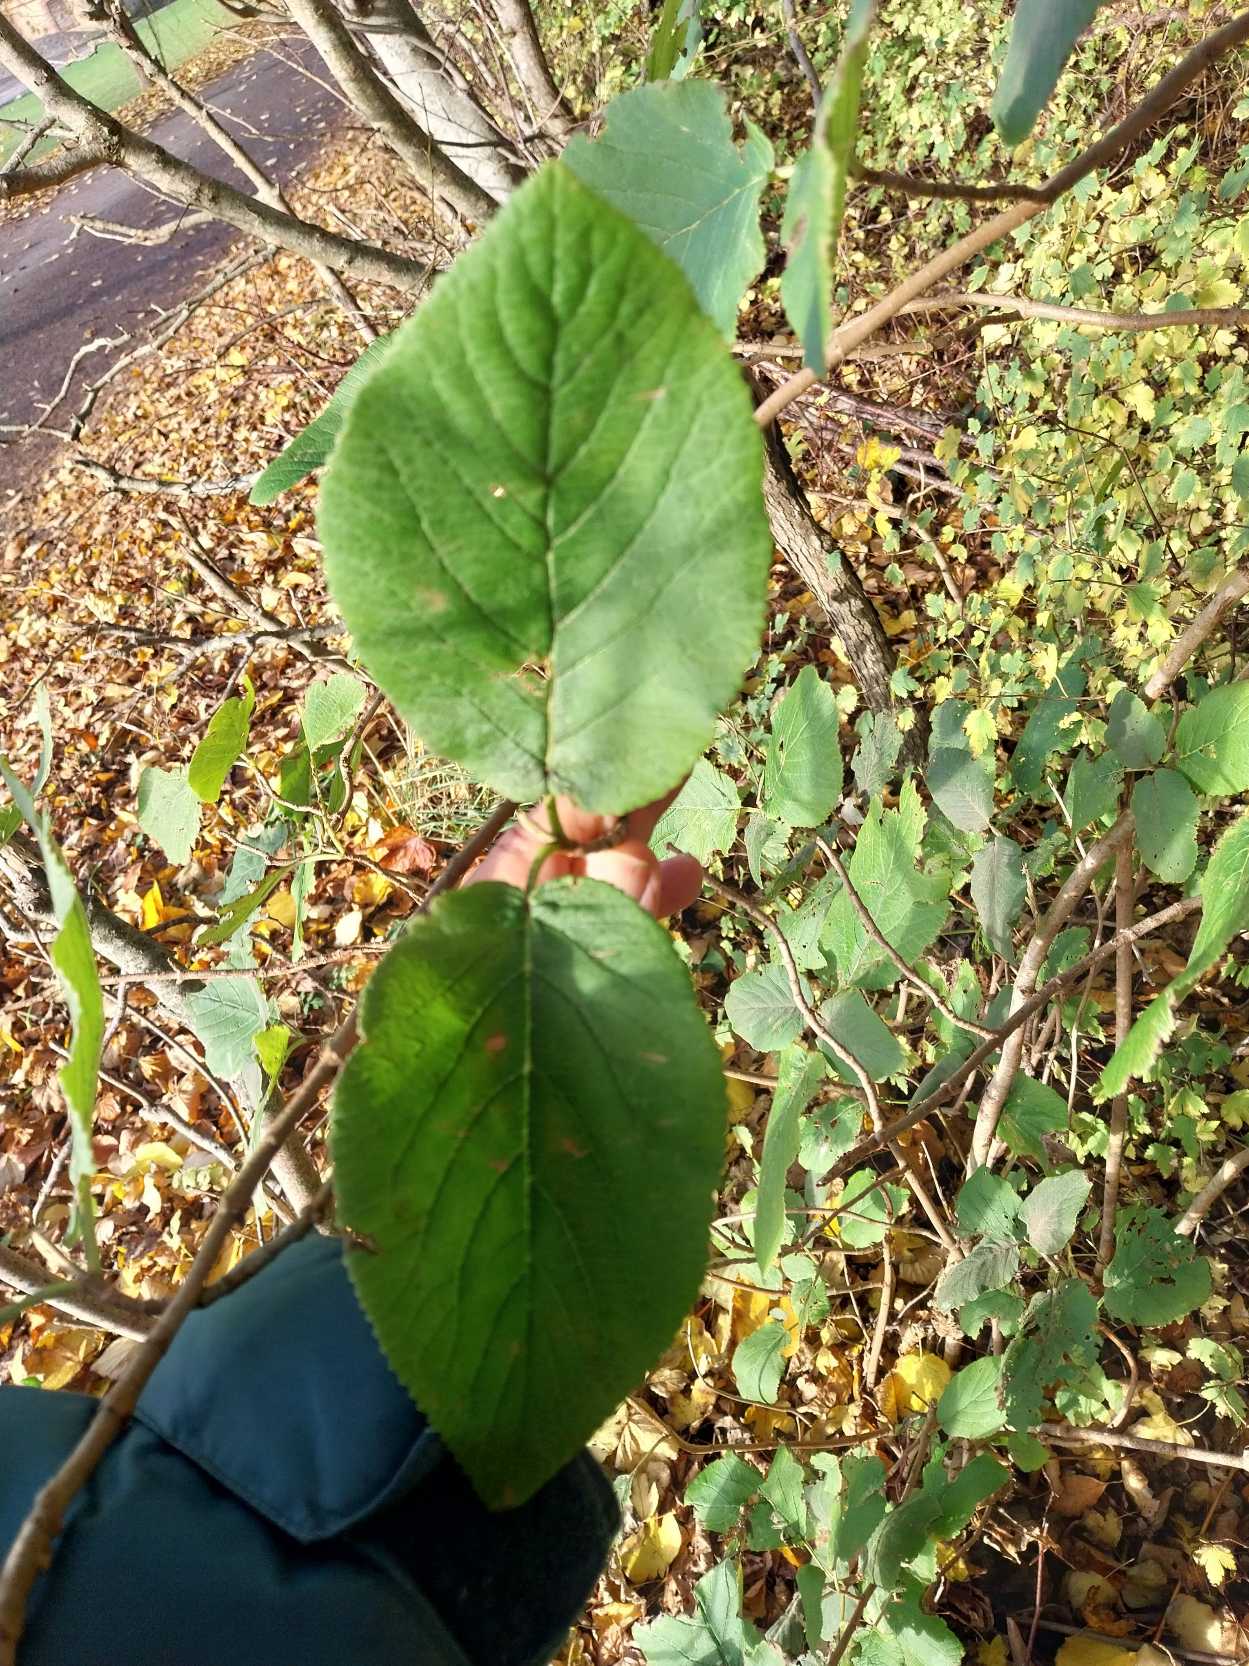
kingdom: Plantae
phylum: Tracheophyta
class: Magnoliopsida
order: Dipsacales
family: Viburnaceae
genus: Viburnum
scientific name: Viburnum lantana
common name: Pibe-kvalkved
